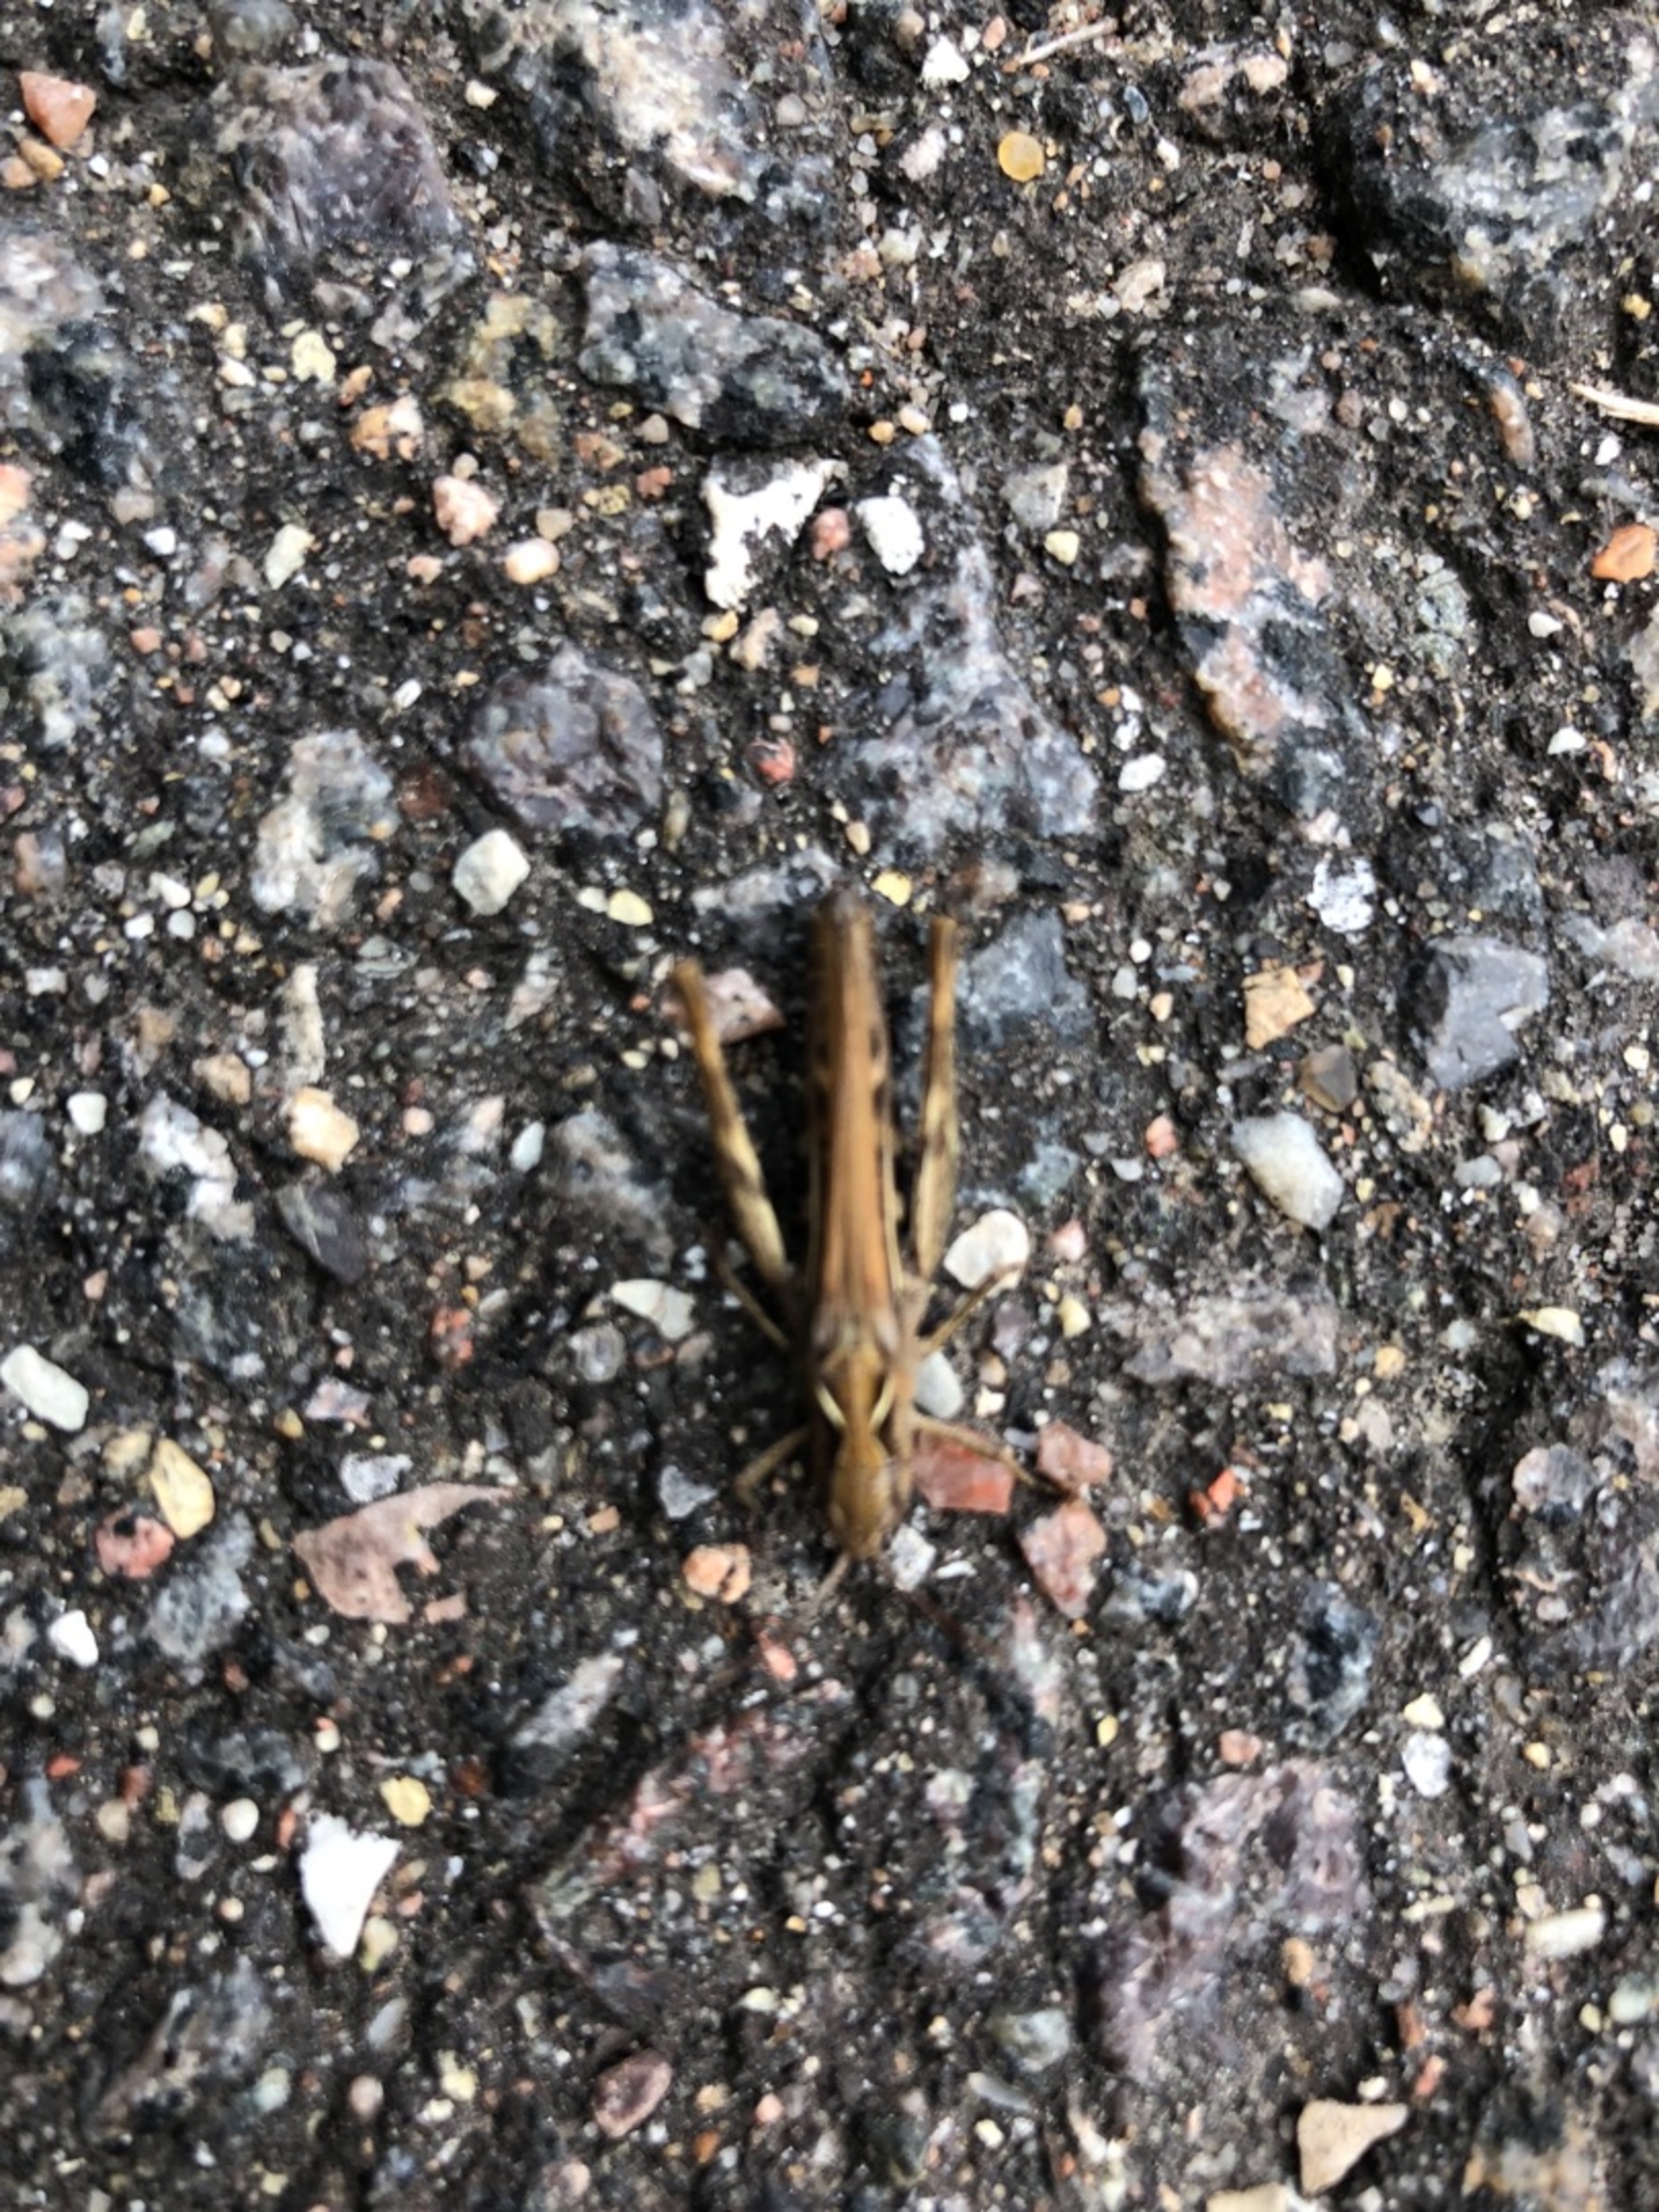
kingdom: Animalia
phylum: Arthropoda
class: Insecta
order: Orthoptera
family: Acrididae
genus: Chorthippus
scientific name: Chorthippus
